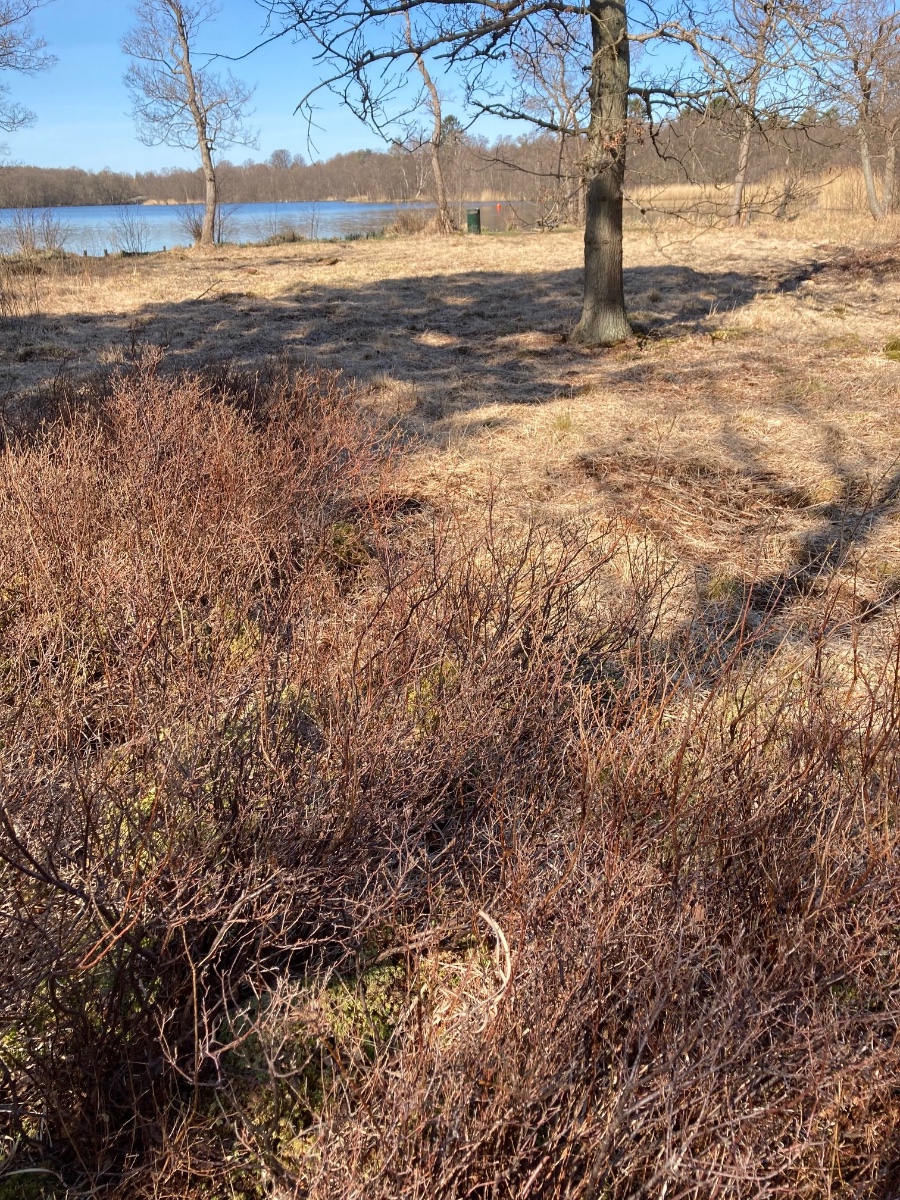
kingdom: Fungi
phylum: Ascomycota
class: Leotiomycetes
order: Rhytismatales
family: Rhytismataceae
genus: Sporomega
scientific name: Sporomega degenerans
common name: bølle-sprækkeskive
